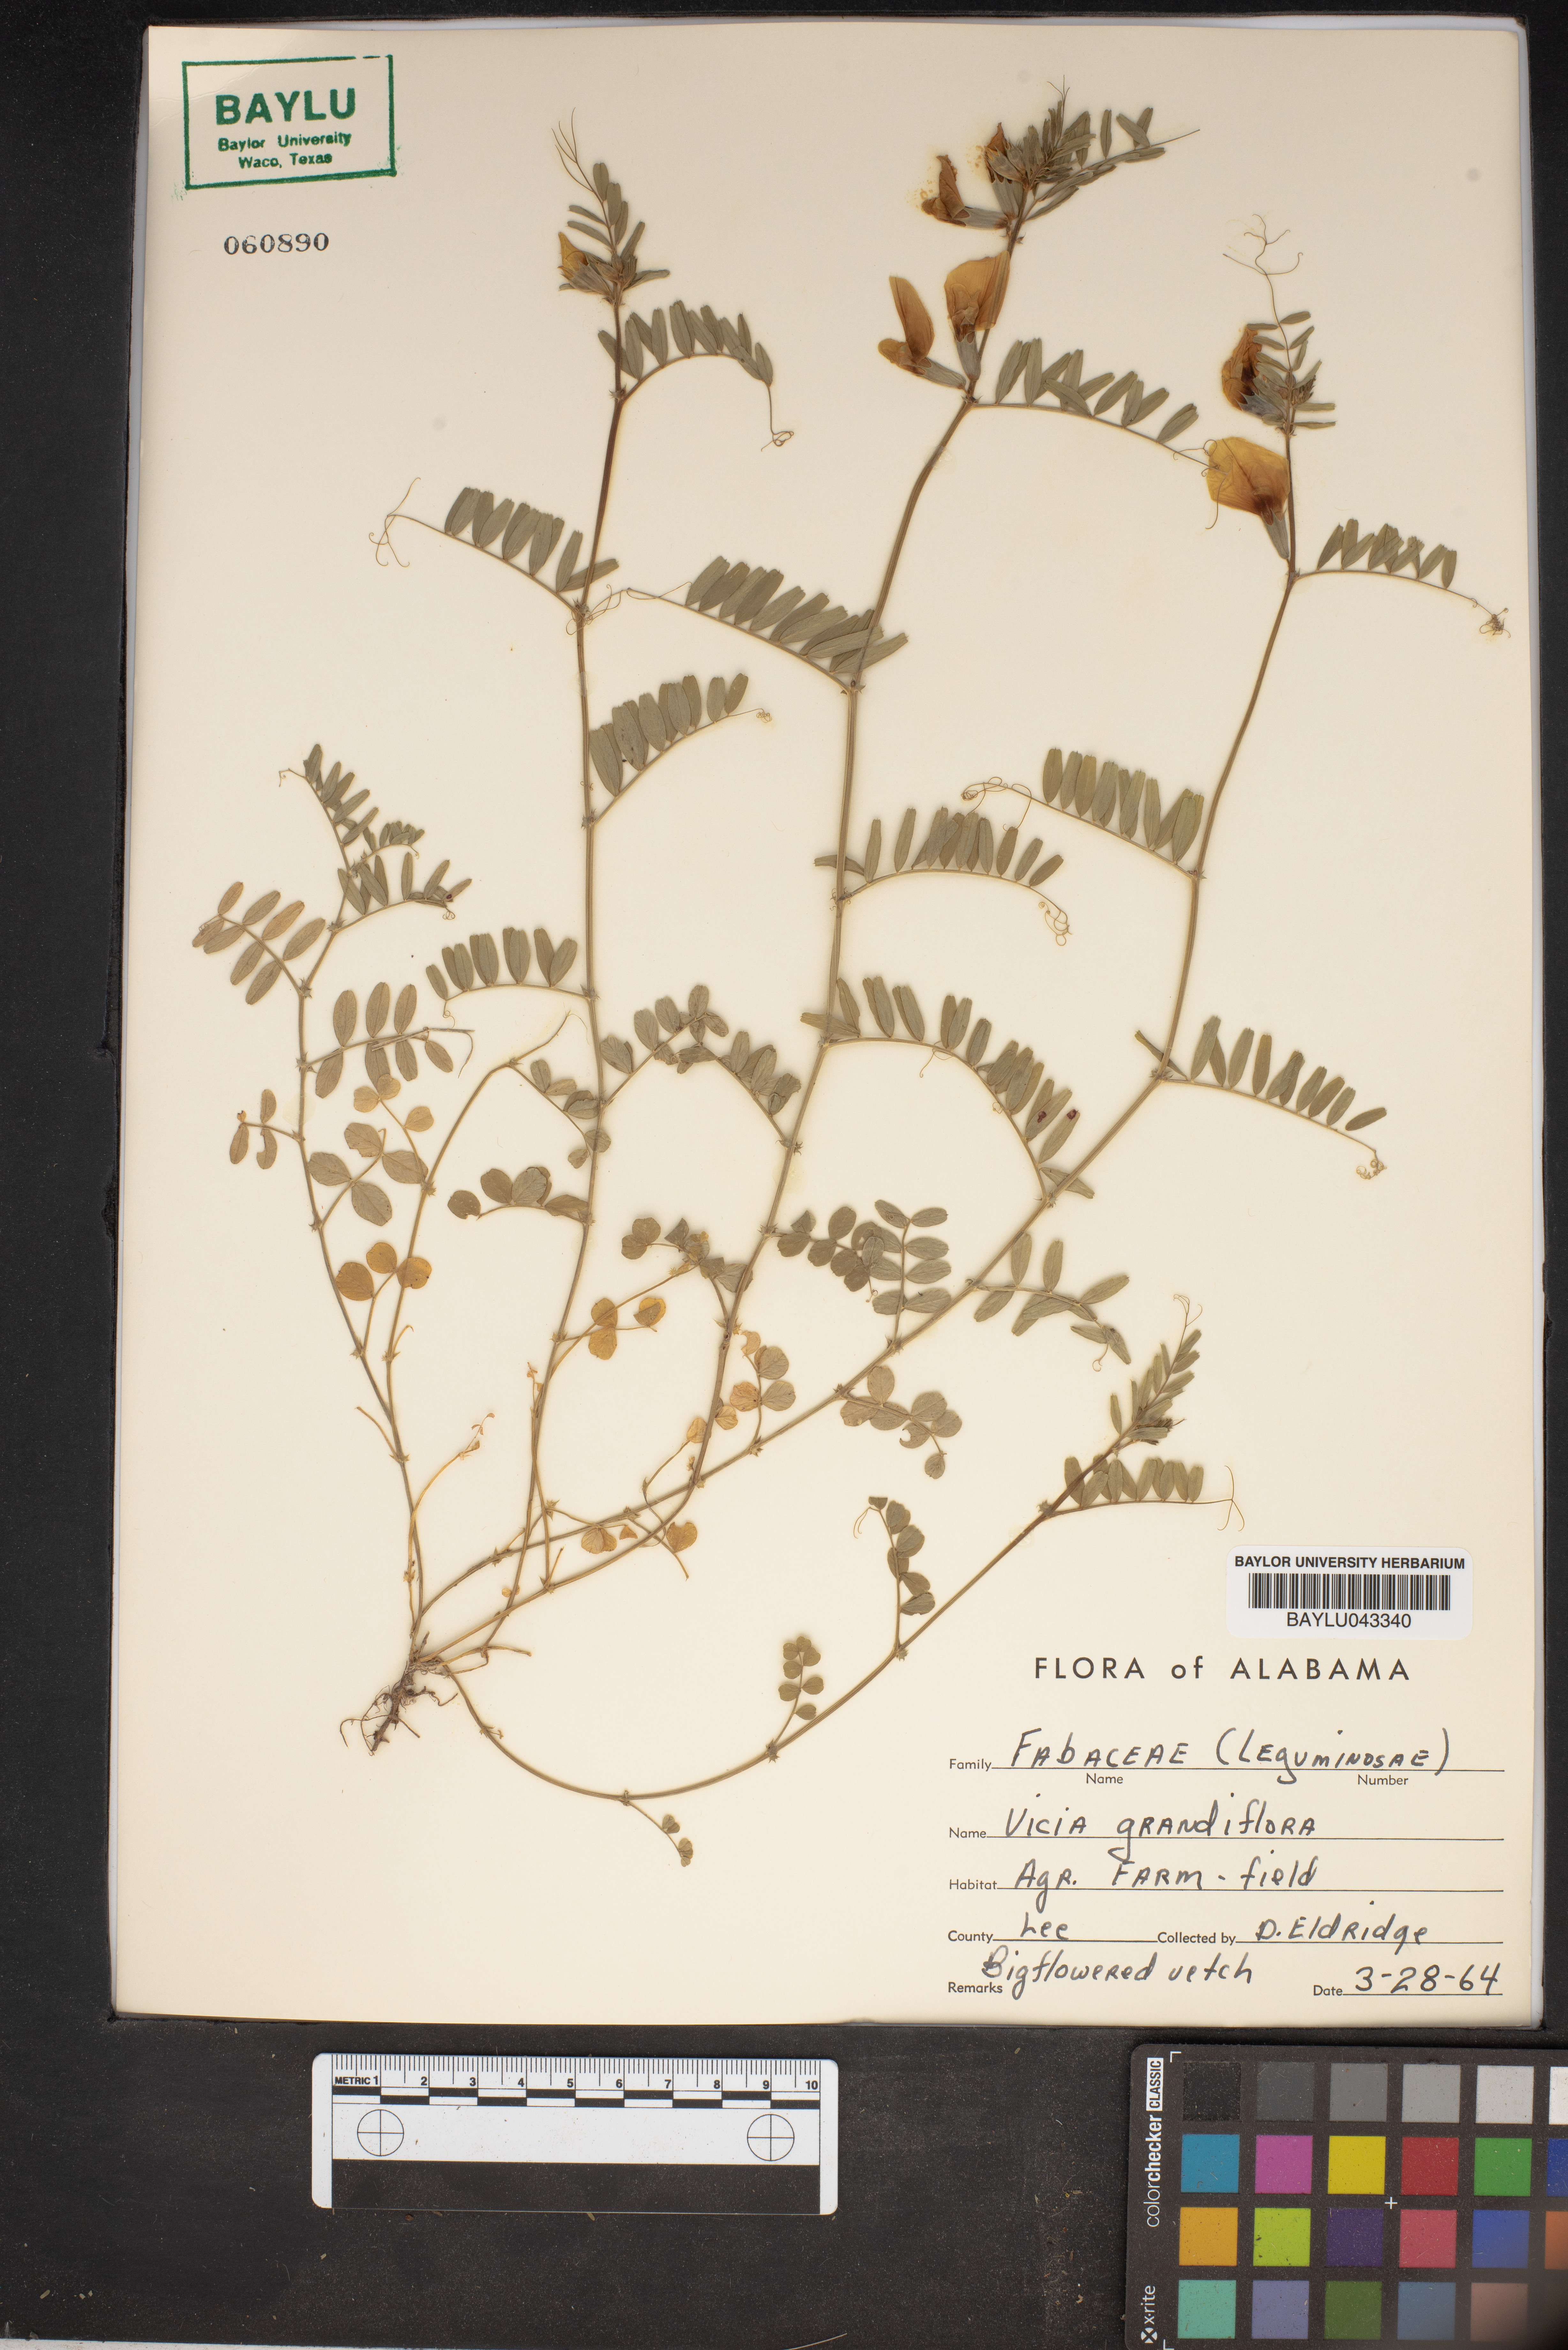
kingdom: Plantae
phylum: Tracheophyta
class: Magnoliopsida
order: Fabales
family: Fabaceae
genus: Vicia
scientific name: Vicia grandiflora
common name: Large yellow vetch
